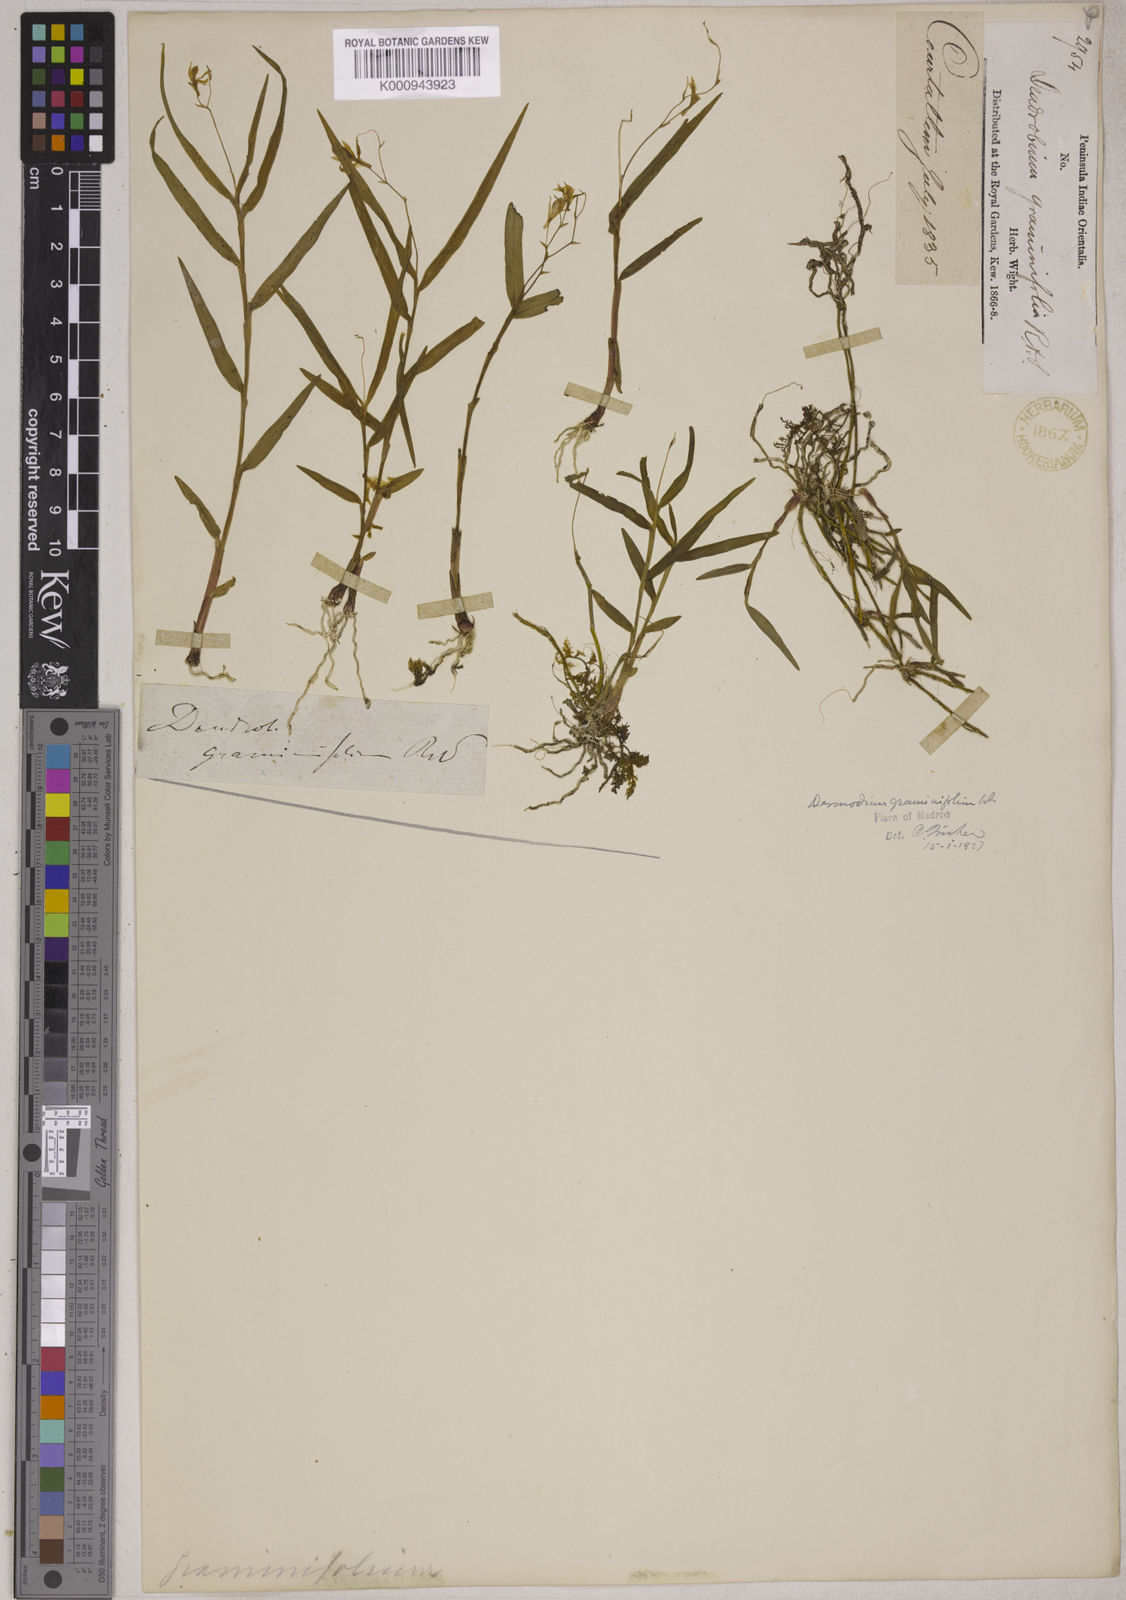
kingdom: Plantae
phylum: Tracheophyta
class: Liliopsida
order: Asparagales
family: Orchidaceae
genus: Dendrobium
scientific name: Dendrobium wightii
